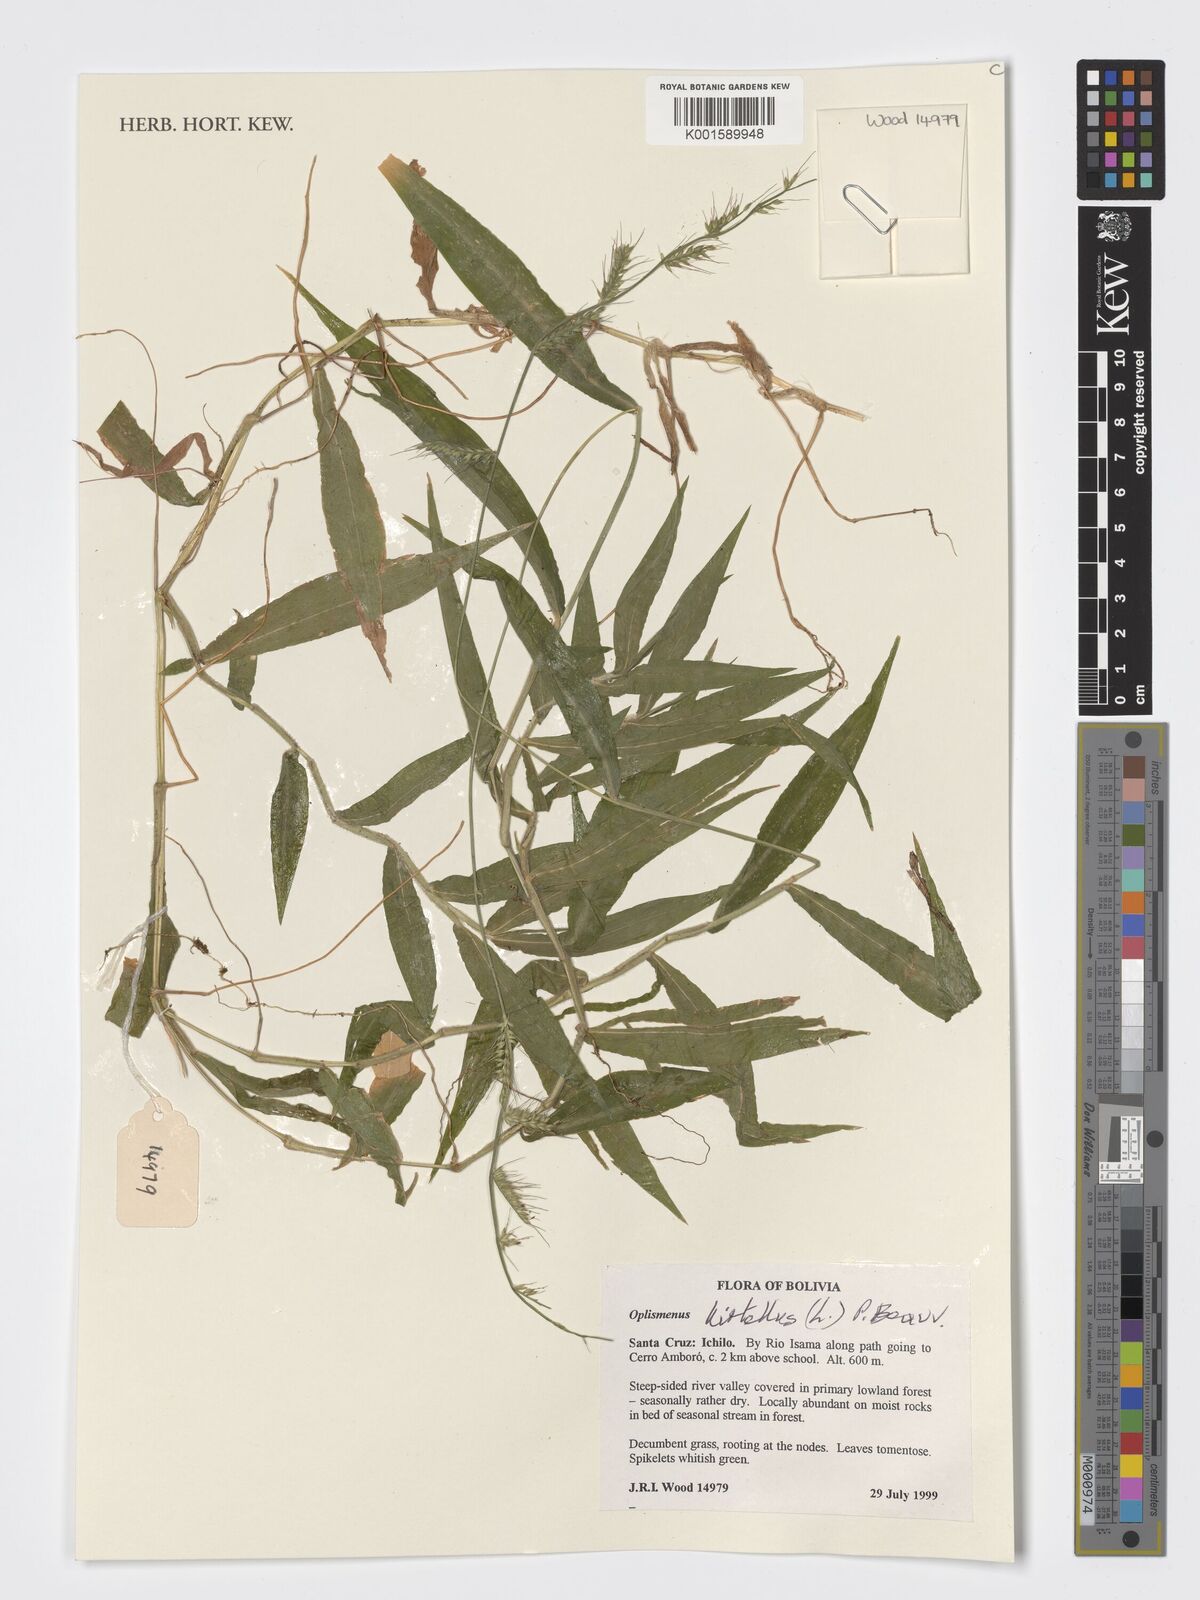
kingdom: Plantae
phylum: Tracheophyta
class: Liliopsida
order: Poales
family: Poaceae
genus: Oplismenus
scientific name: Oplismenus hirtellus
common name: Basketgrass
